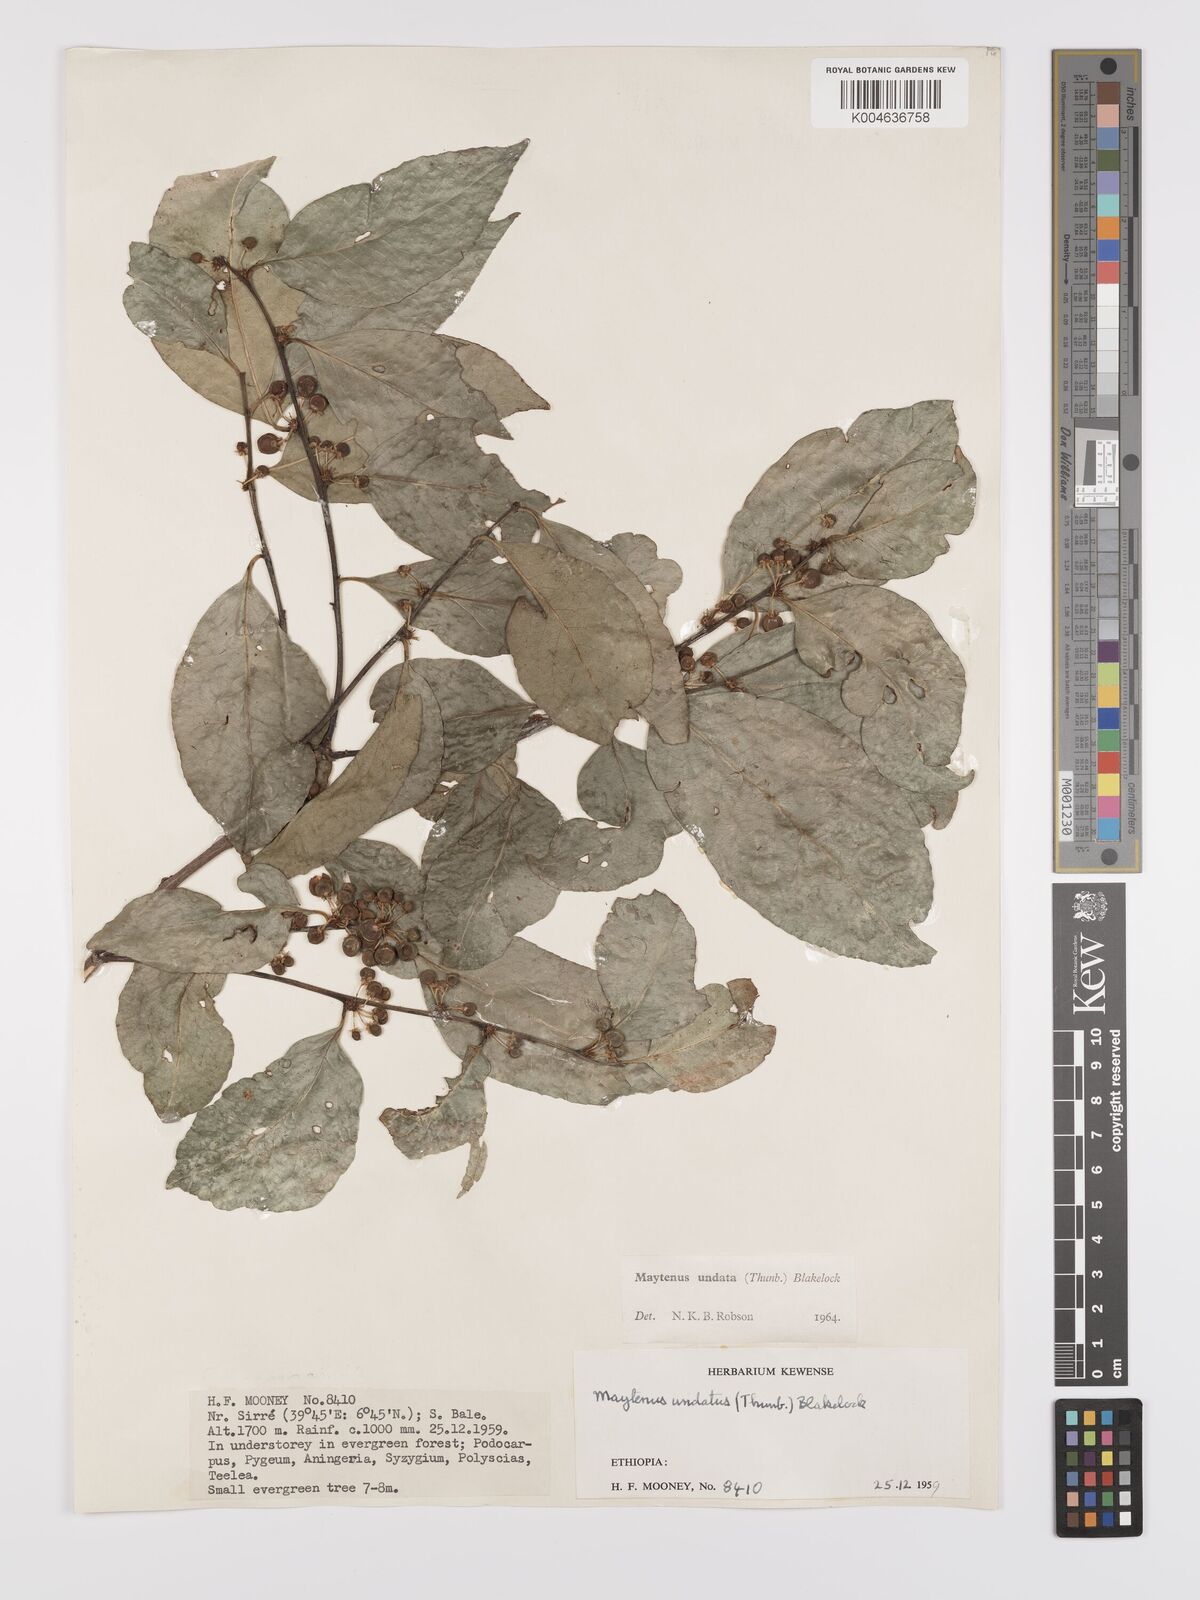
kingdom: Plantae
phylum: Tracheophyta
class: Magnoliopsida
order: Celastrales
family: Celastraceae
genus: Gymnosporia
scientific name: Gymnosporia undata
